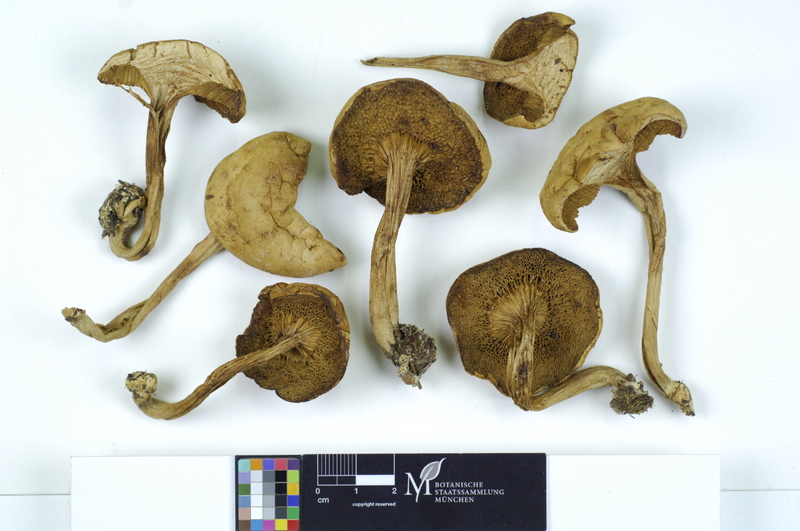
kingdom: Fungi
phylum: Basidiomycota
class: Agaricomycetes
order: Boletales
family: Boletaceae
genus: Xerocomus
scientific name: Xerocomus ferrugineus
